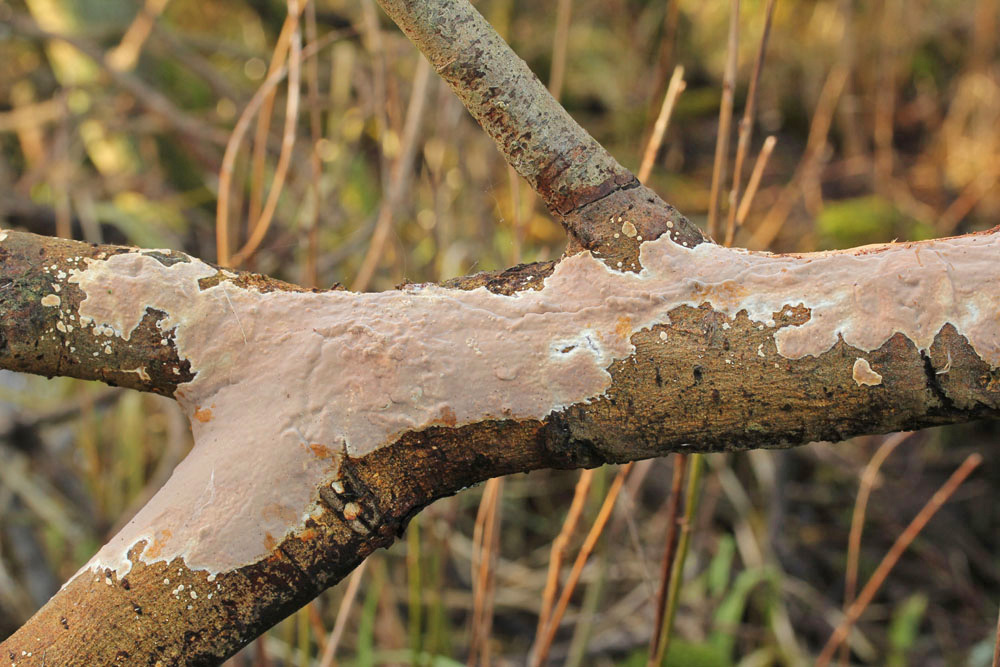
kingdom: Fungi
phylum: Basidiomycota
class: Agaricomycetes
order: Russulales
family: Peniophoraceae
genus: Scytinostroma
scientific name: Scytinostroma hemidichophyticum
